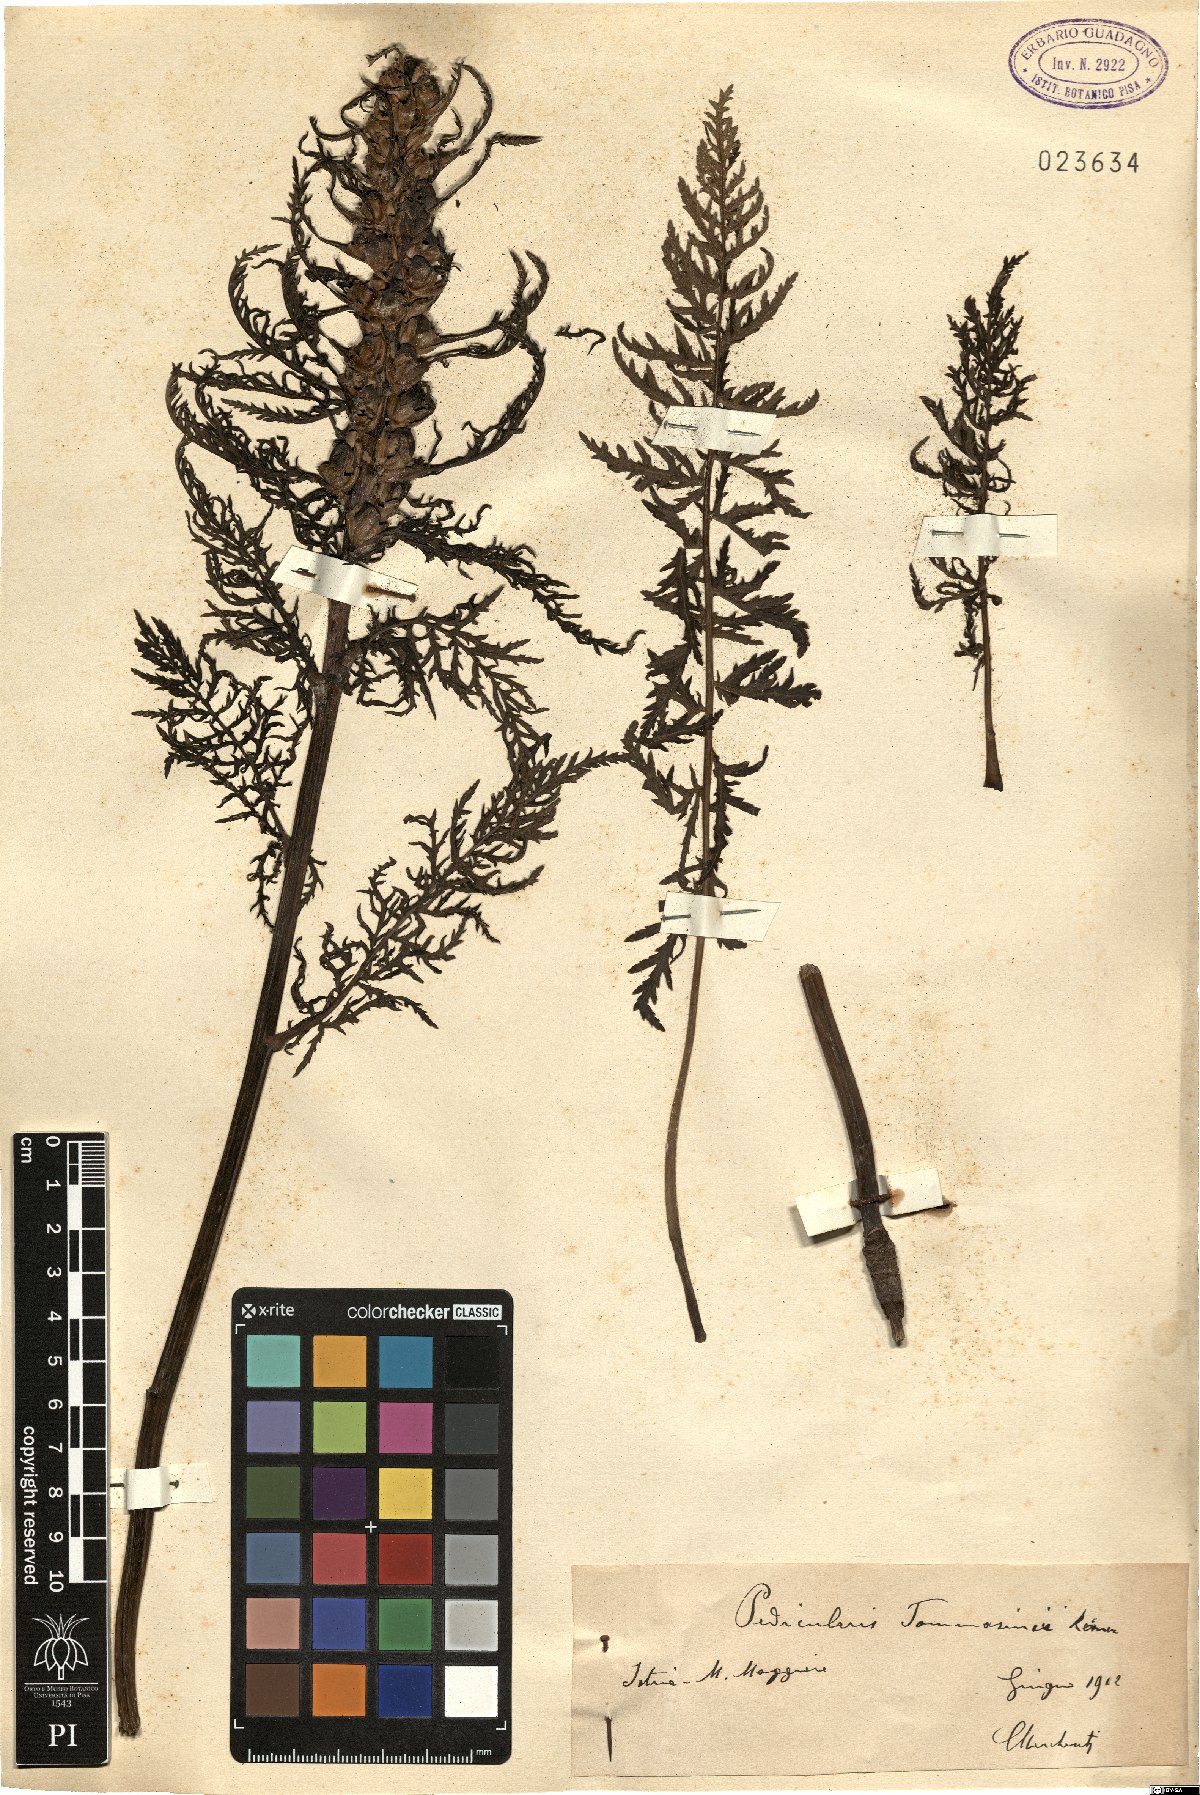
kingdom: Plantae
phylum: Tracheophyta
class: Magnoliopsida
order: Lamiales
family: Orobanchaceae
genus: Pedicularis
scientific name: Pedicularis friderici-augusti
